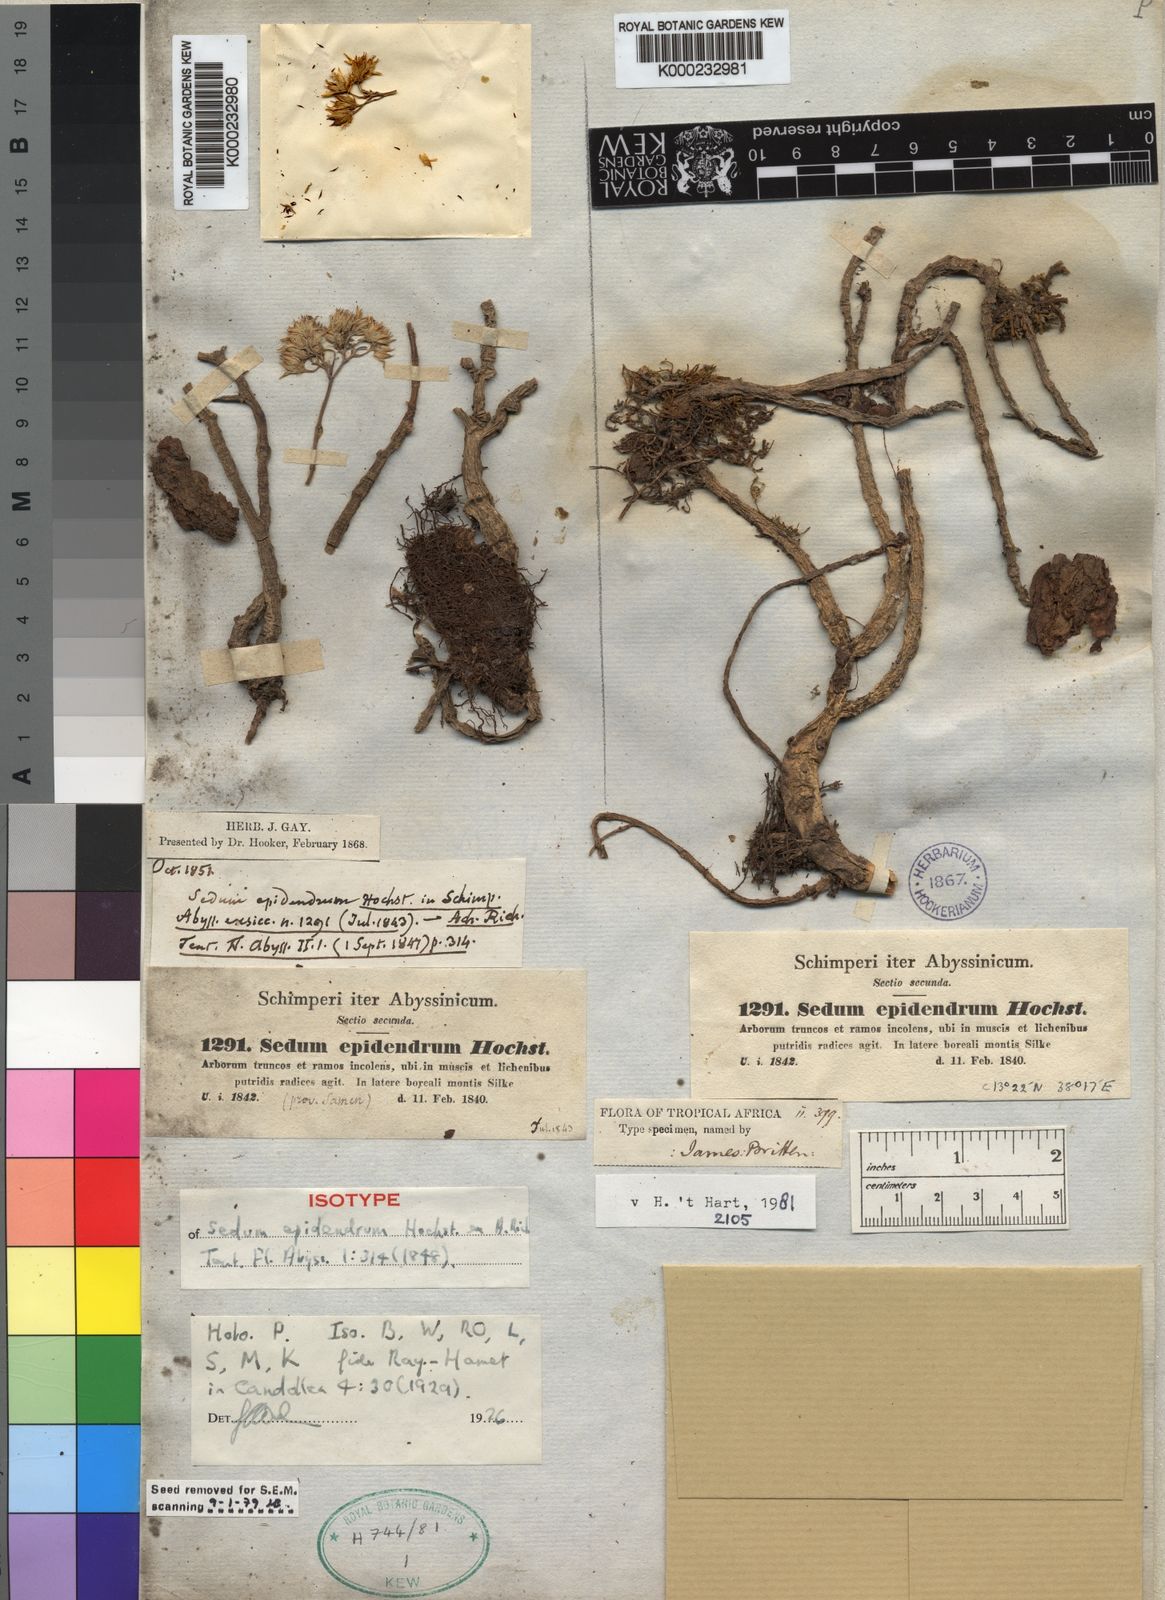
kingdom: Plantae
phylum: Tracheophyta
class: Magnoliopsida
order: Saxifragales
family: Crassulaceae
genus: Sedum
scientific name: Sedum epidendrum
